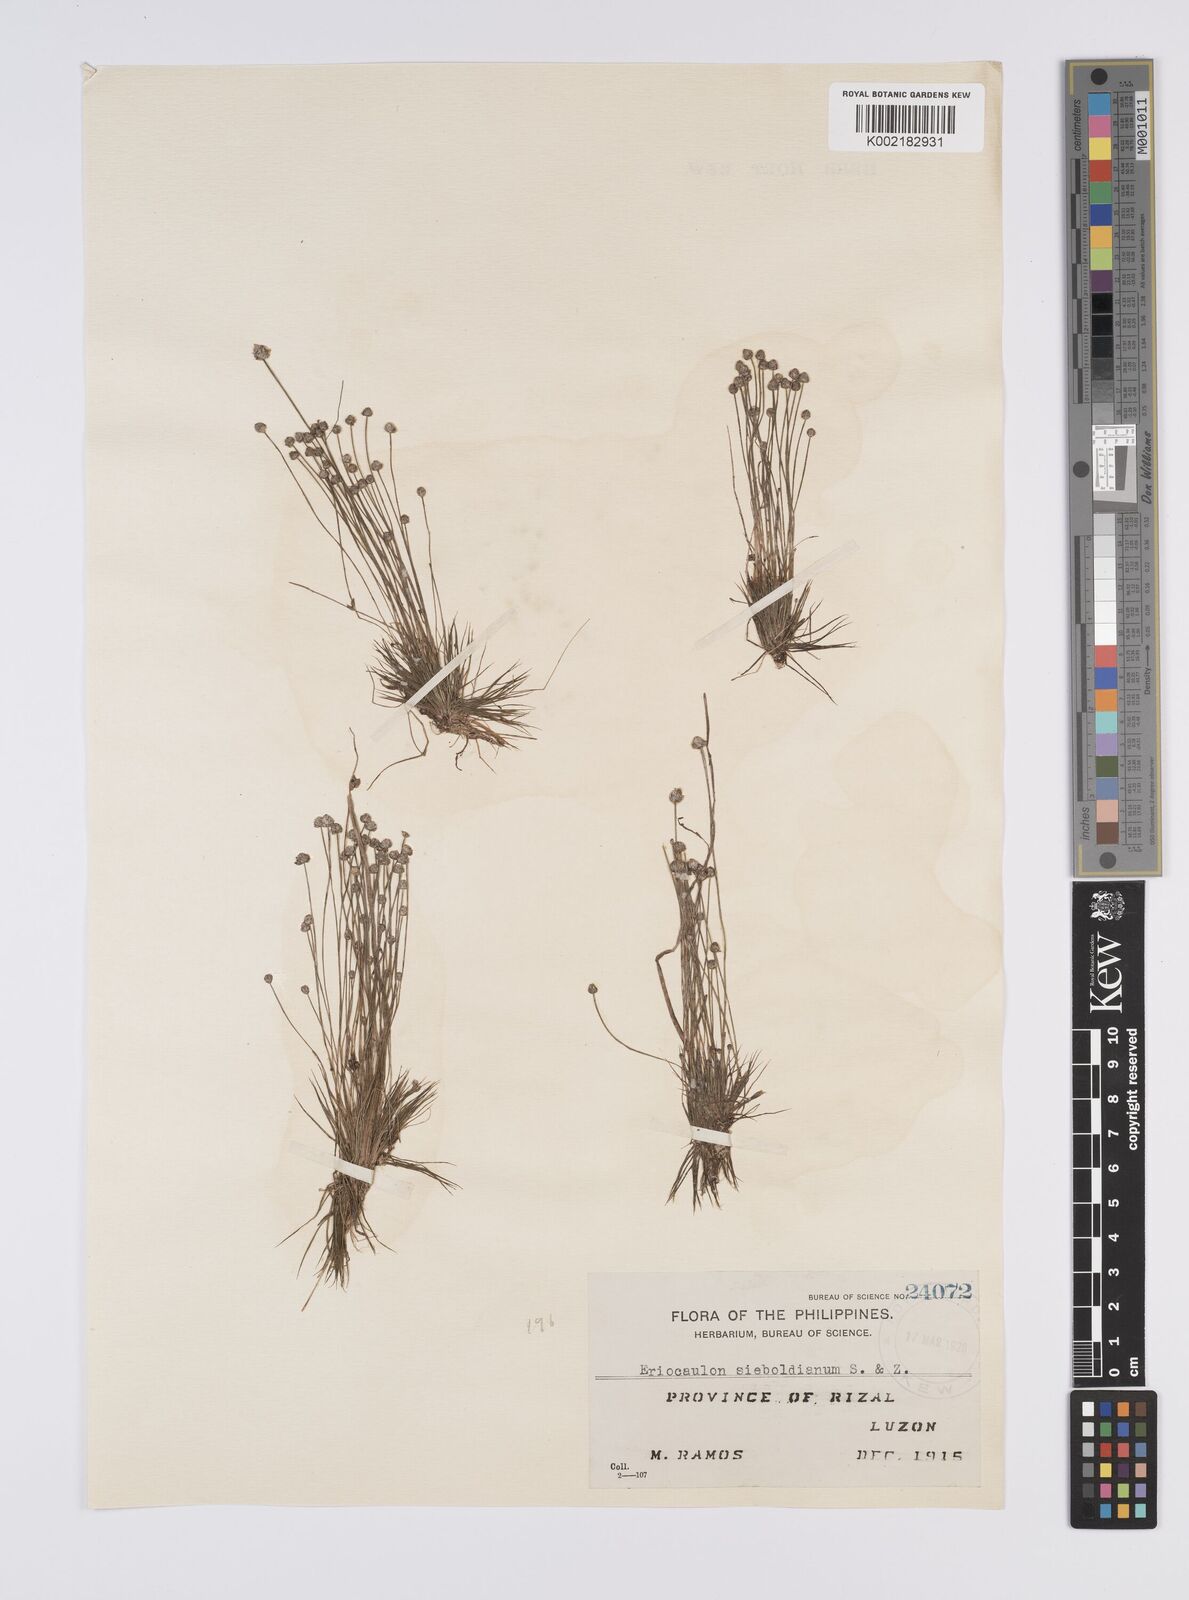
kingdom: Plantae
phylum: Tracheophyta
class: Liliopsida
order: Poales
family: Eriocaulaceae
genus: Eriocaulon
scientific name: Eriocaulon cinereum
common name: Ashy pipewort
